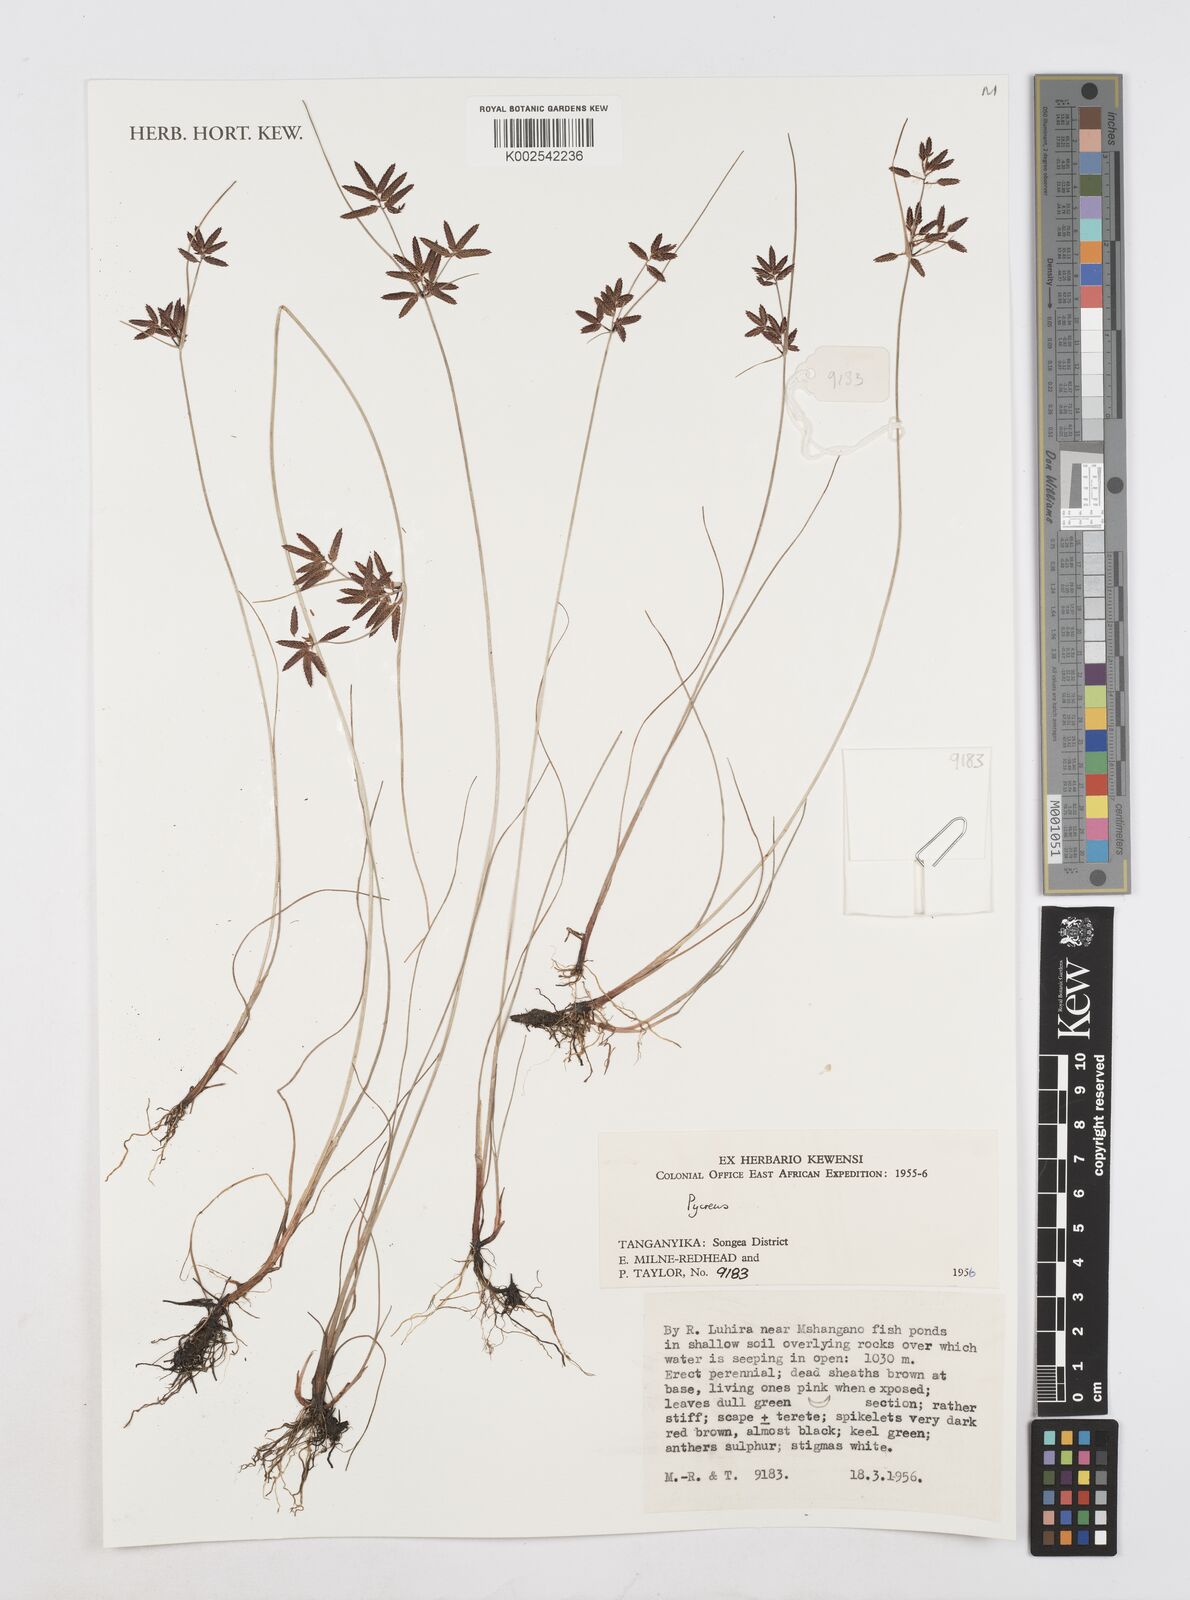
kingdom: Plantae
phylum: Tracheophyta
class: Liliopsida
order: Poales
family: Cyperaceae
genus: Cyperus
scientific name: Cyperus
